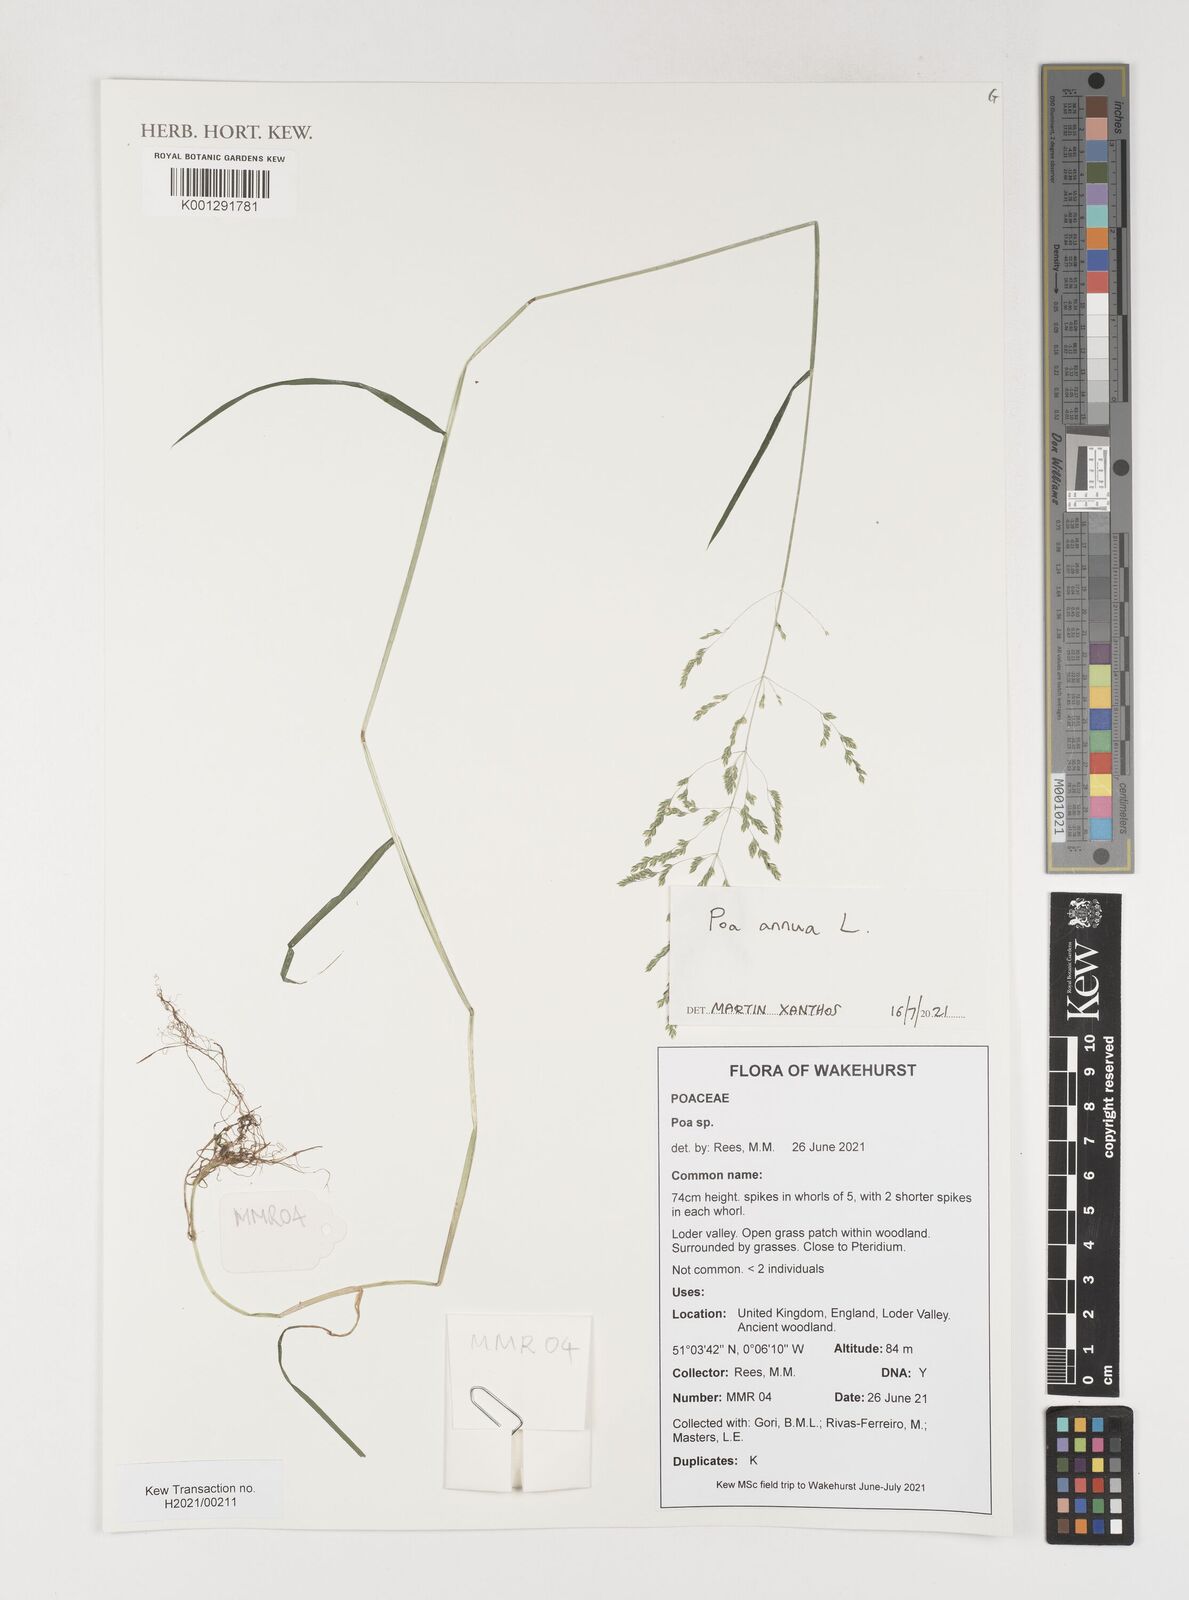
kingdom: Plantae
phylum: Tracheophyta
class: Liliopsida
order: Poales
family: Poaceae
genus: Poa
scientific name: Poa annua
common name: Annual bluegrass
